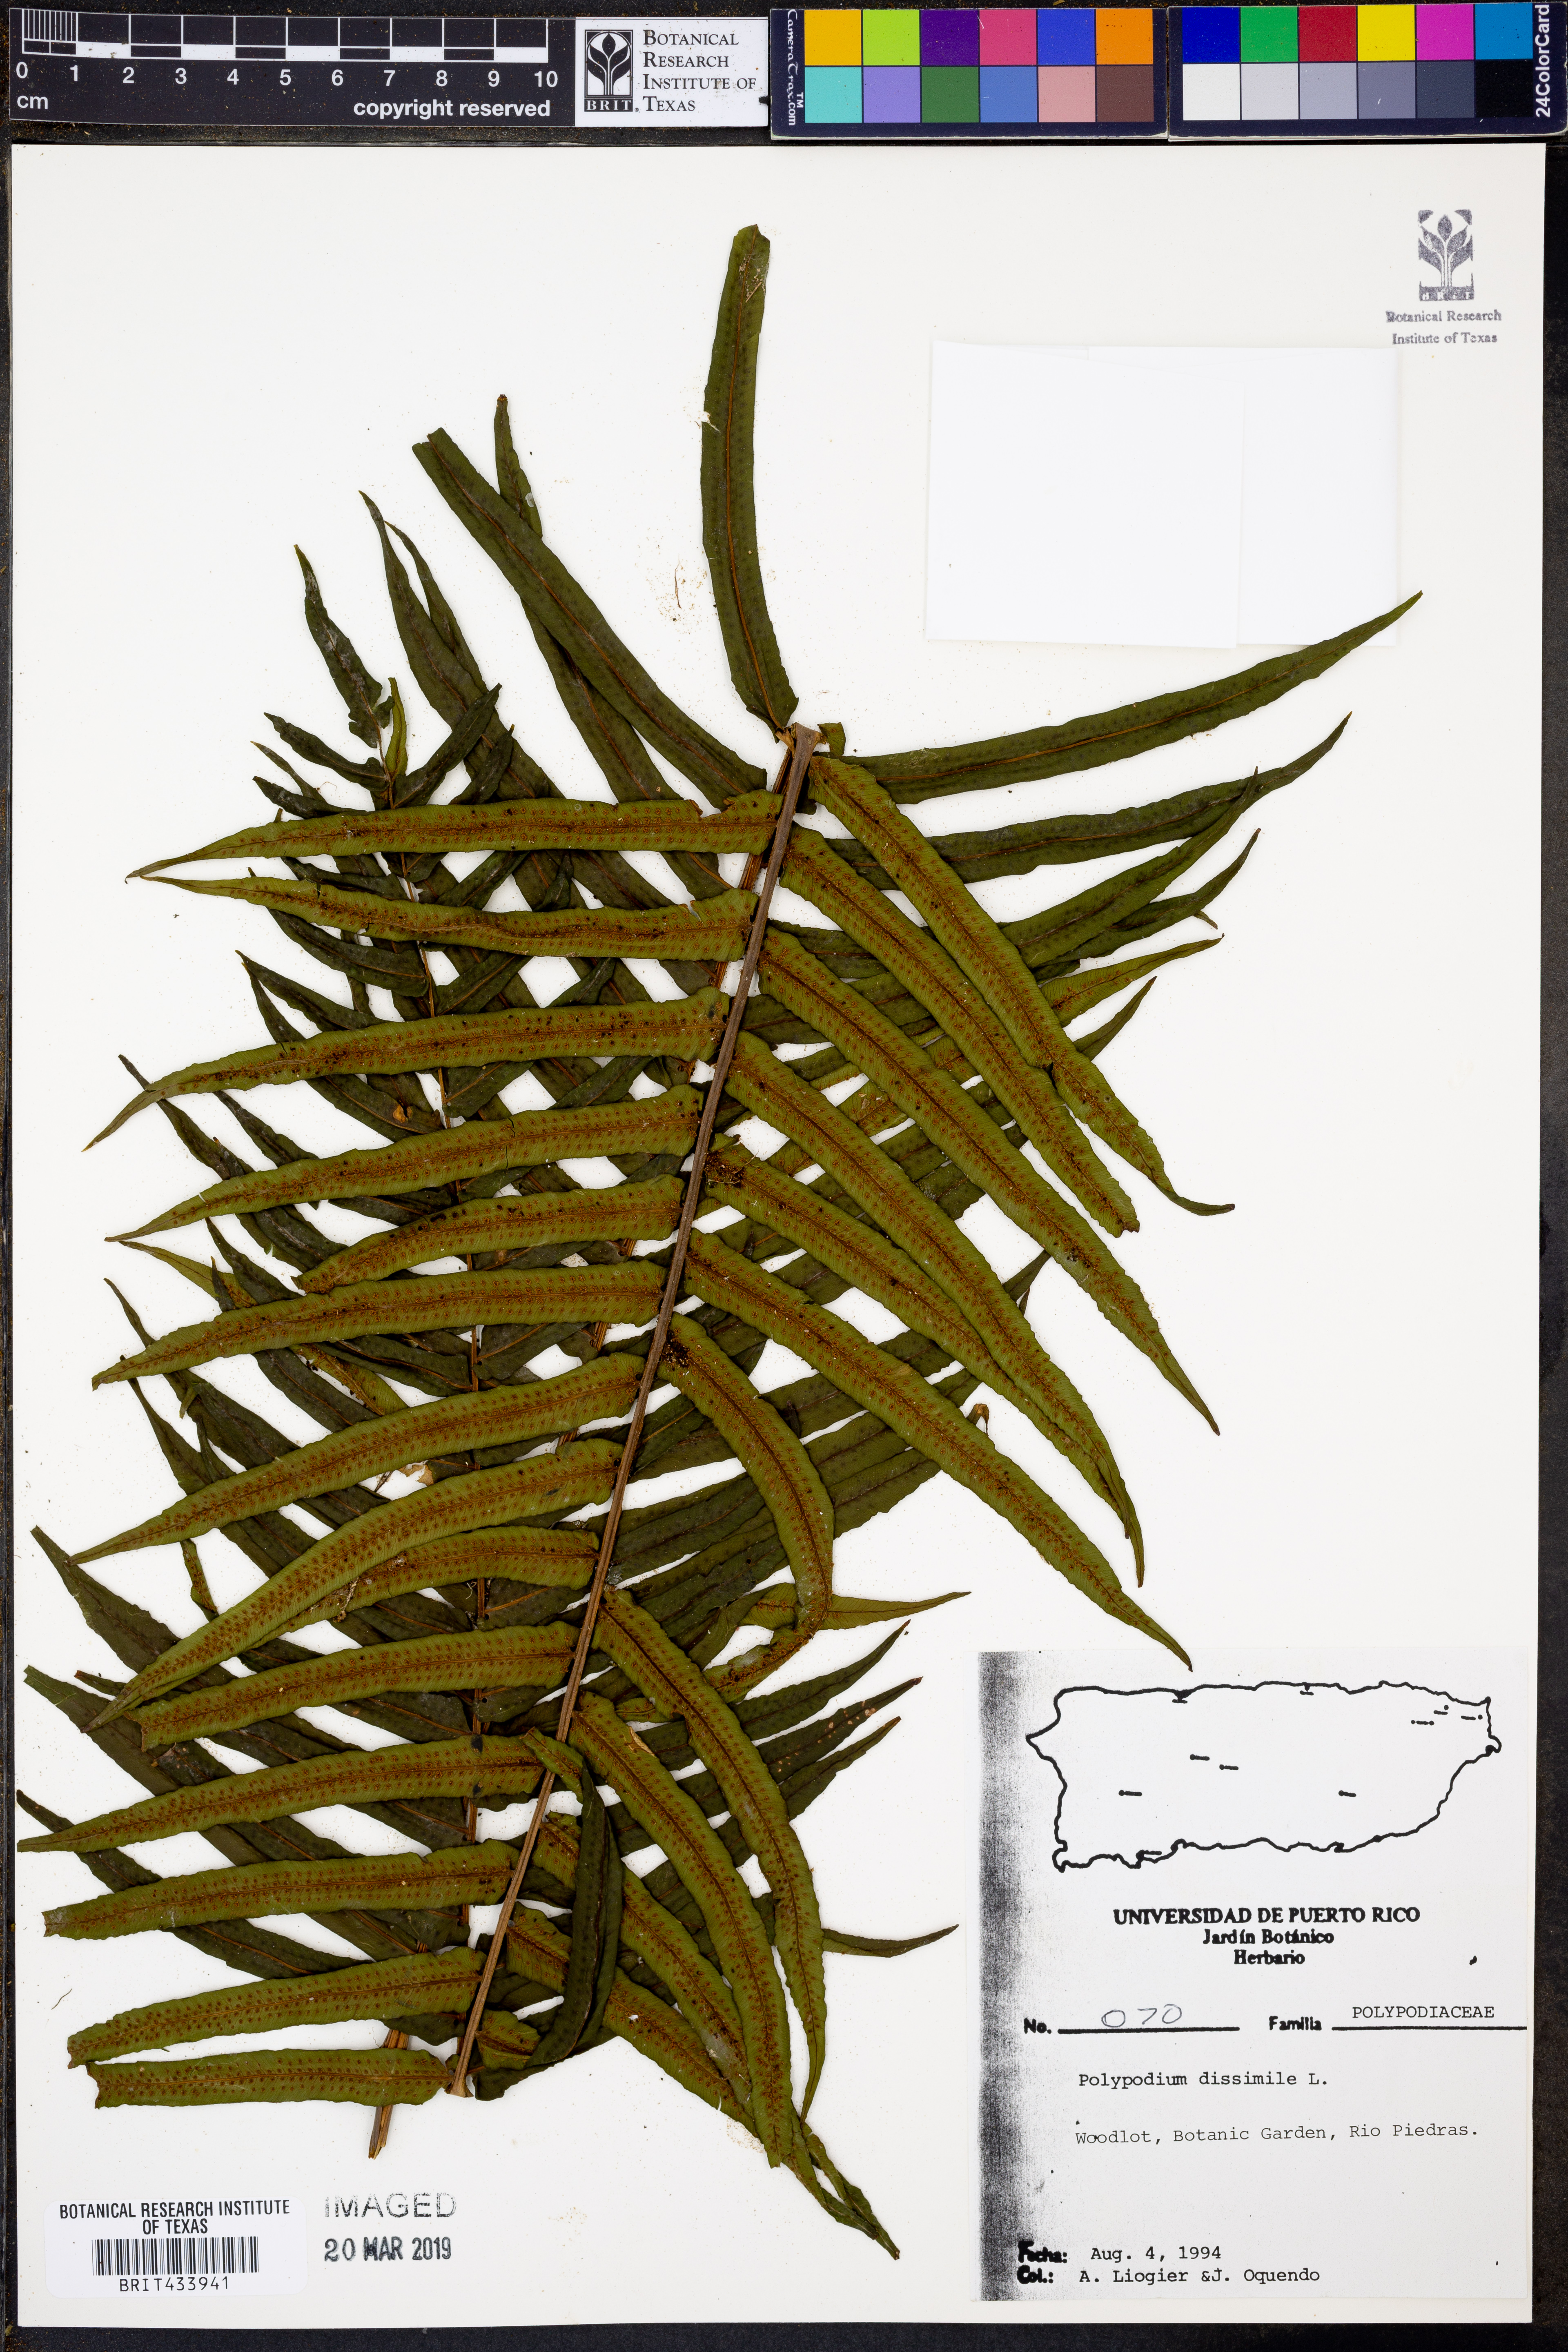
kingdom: Plantae
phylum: Tracheophyta
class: Polypodiopsida
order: Polypodiales
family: Polypodiaceae
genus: Serpocaulon
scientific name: Serpocaulon dissimile
